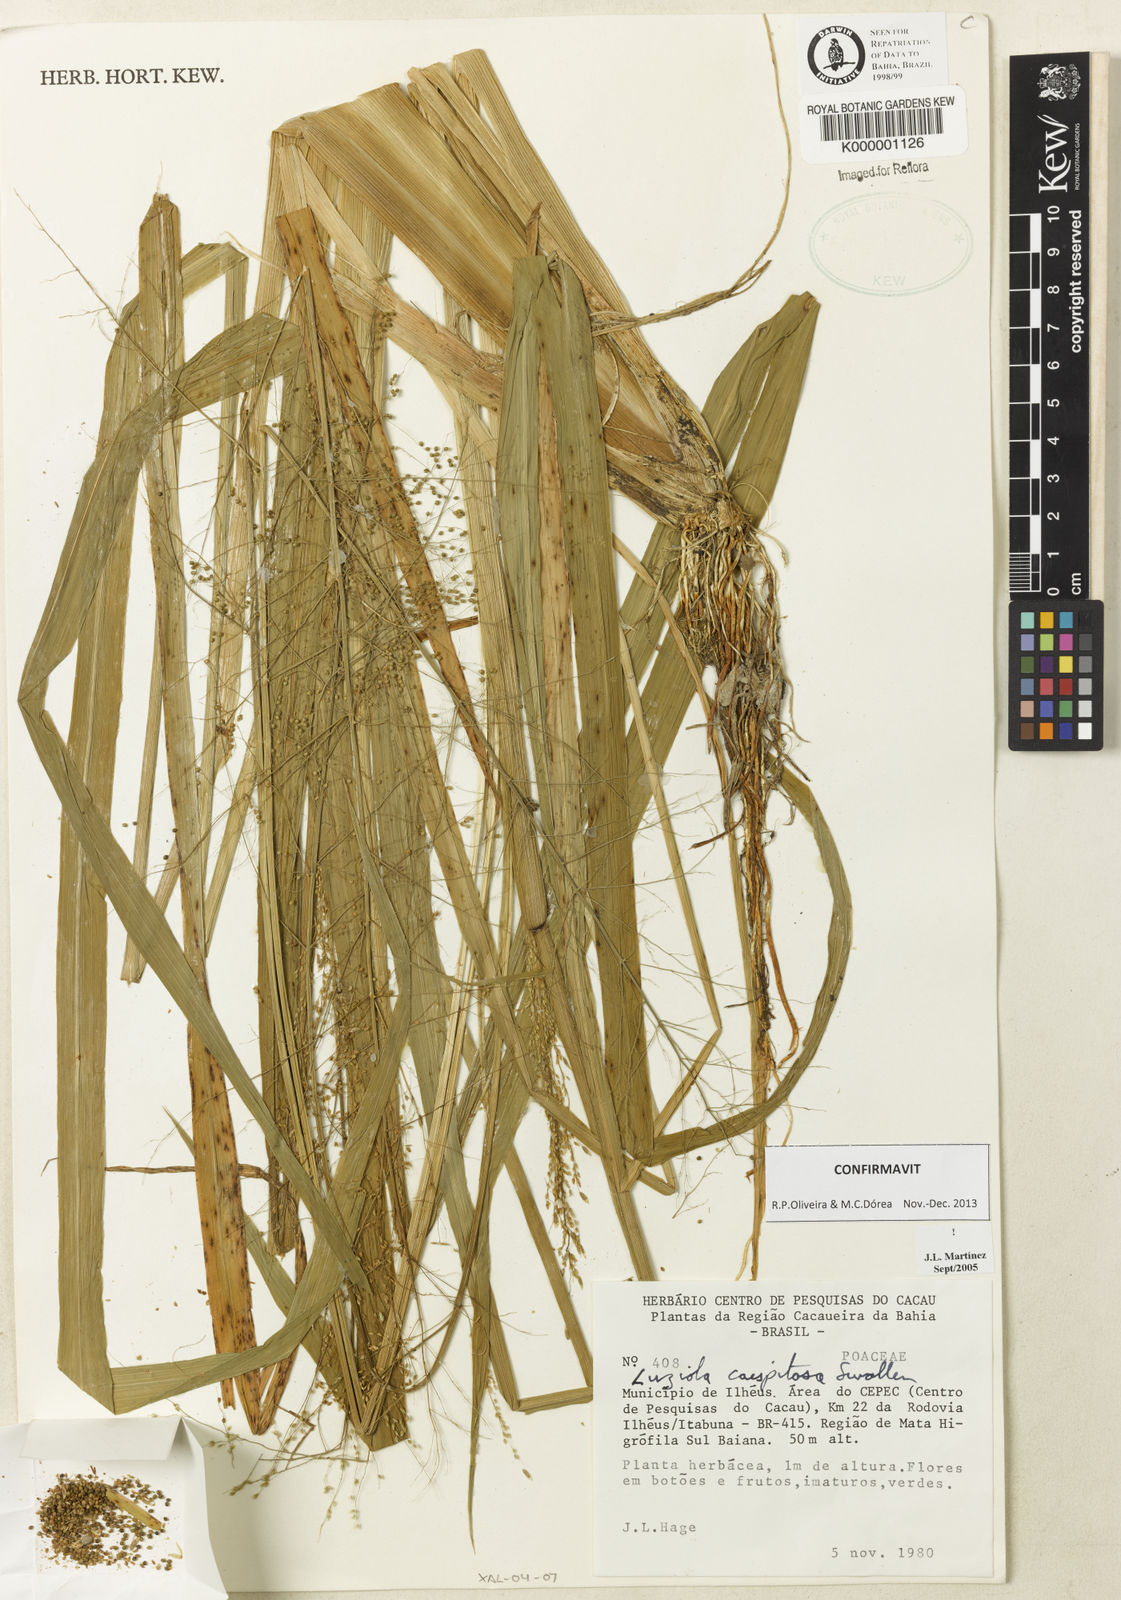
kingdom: Plantae
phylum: Tracheophyta
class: Liliopsida
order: Poales
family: Poaceae
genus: Luziola
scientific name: Luziola caespitosa
